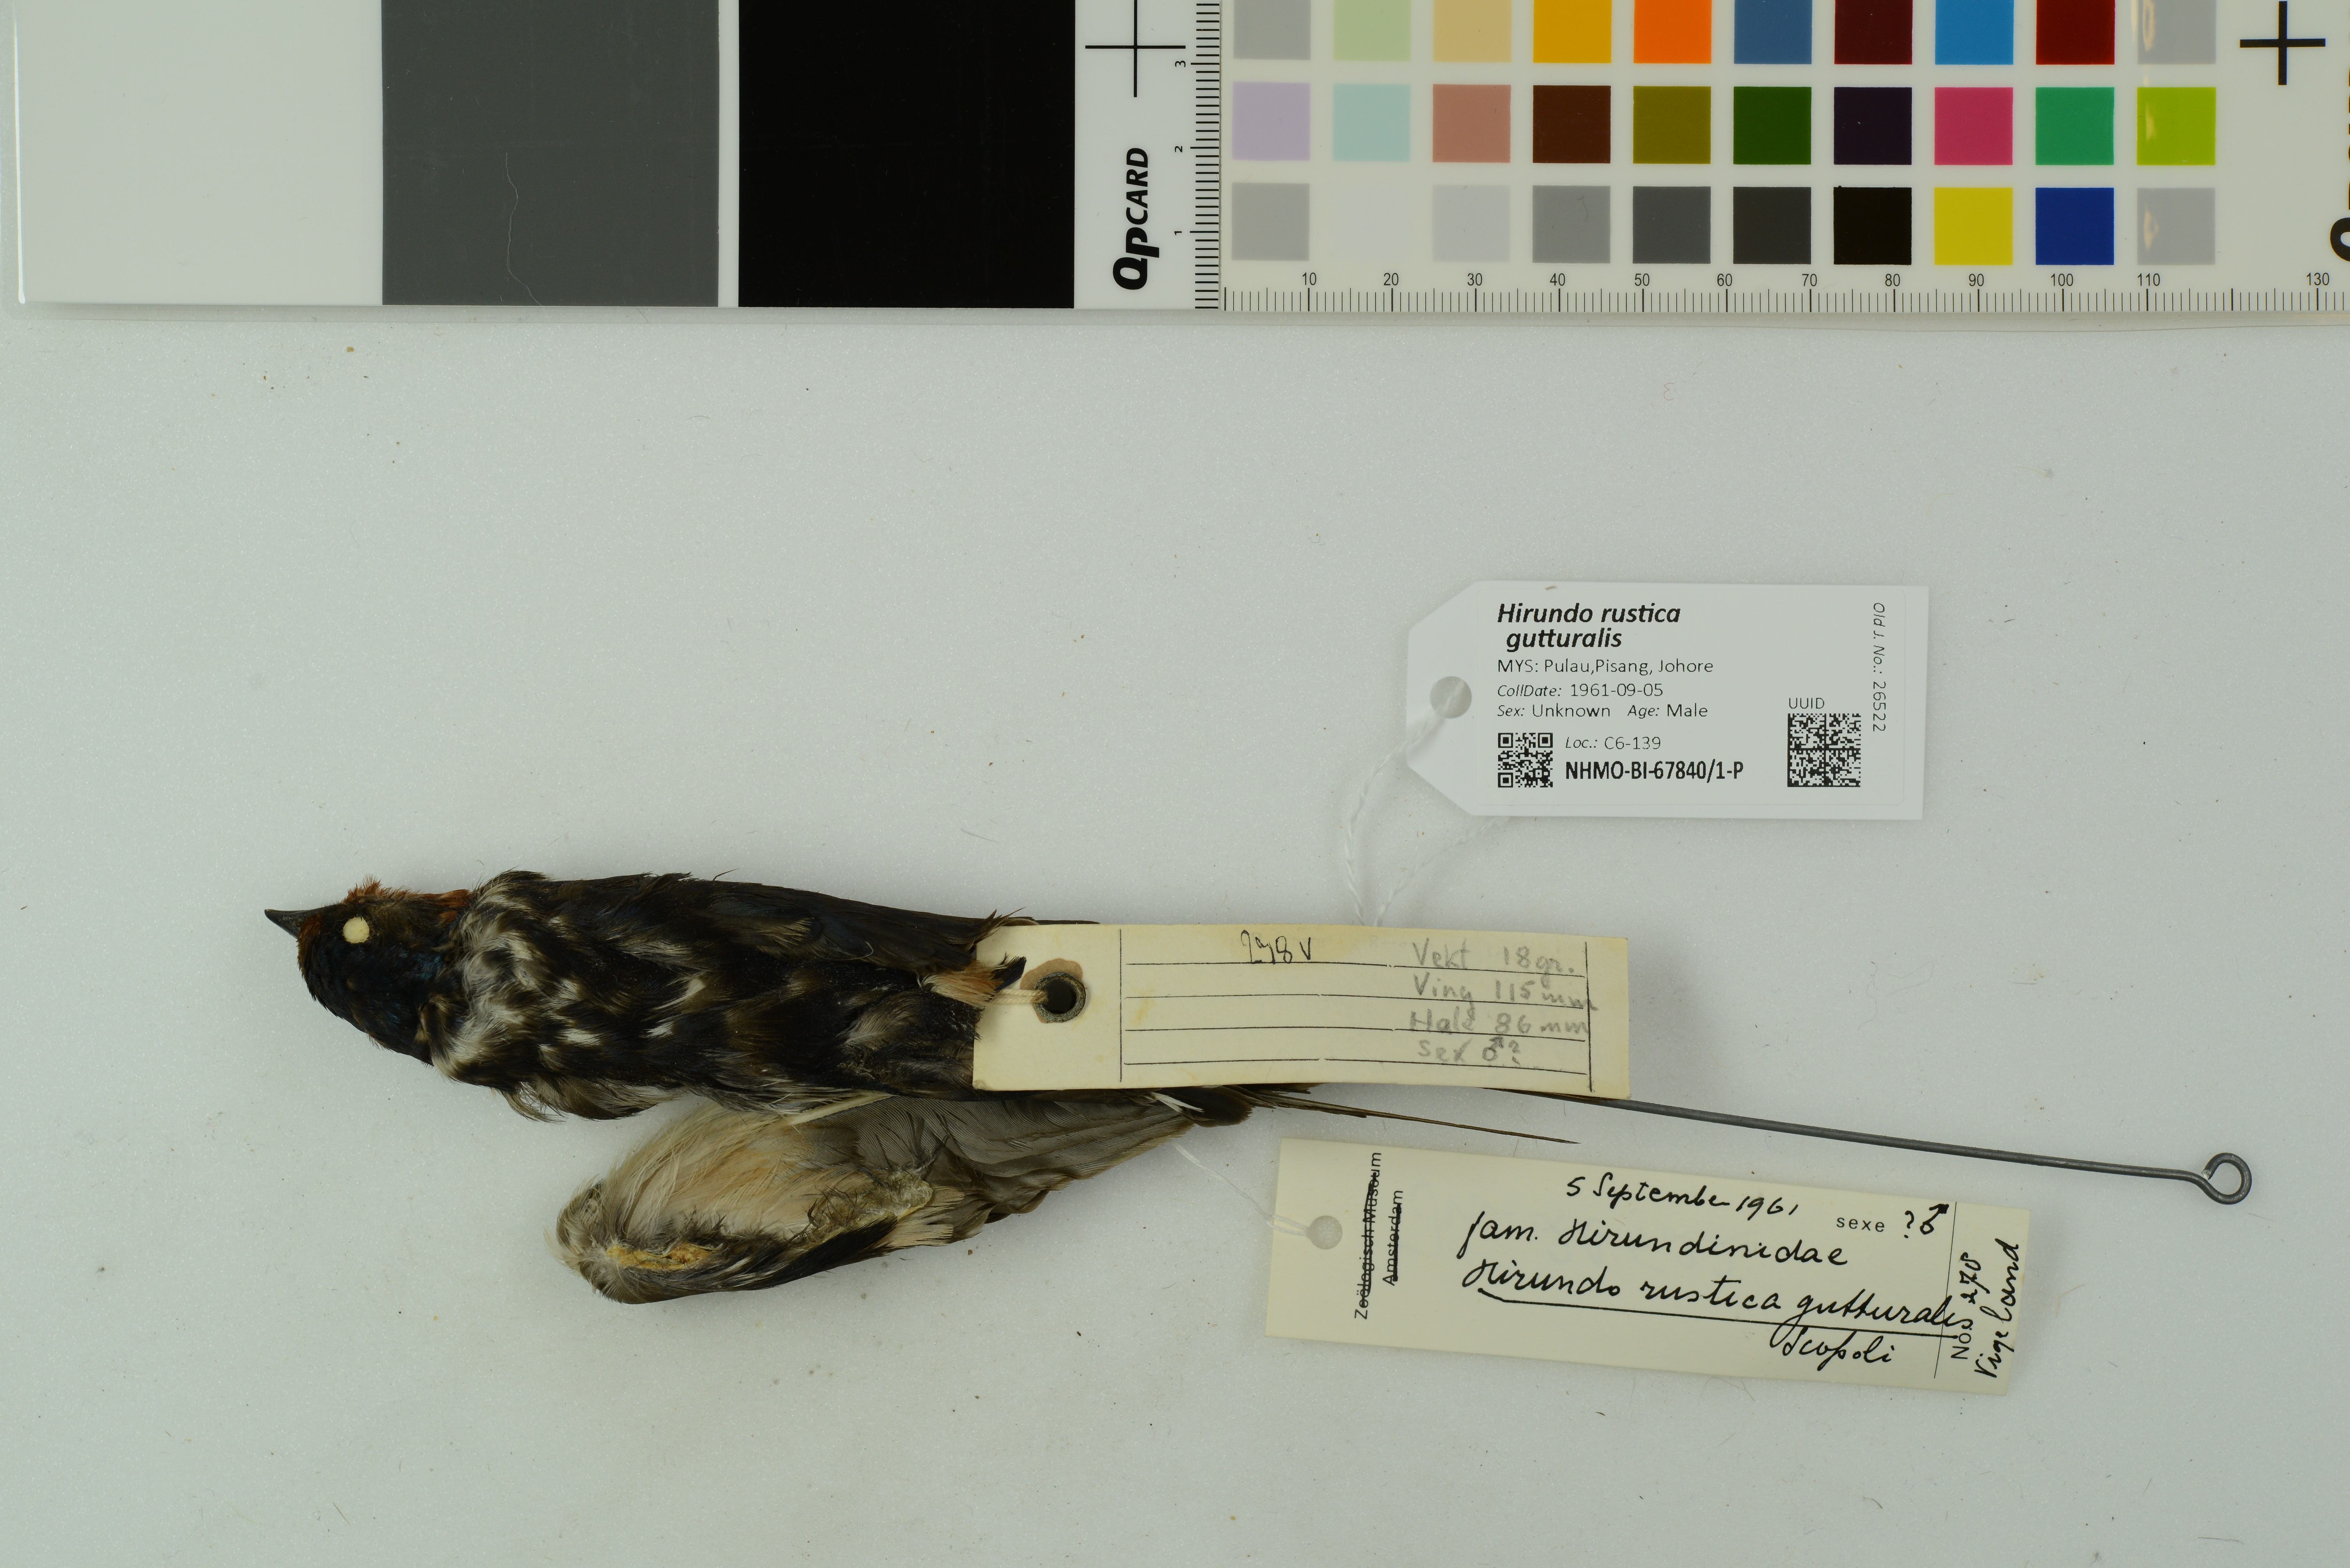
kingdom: Animalia
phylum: Chordata
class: Aves
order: Passeriformes
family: Hirundinidae
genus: Hirundo
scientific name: Hirundo rustica
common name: Barn swallow
